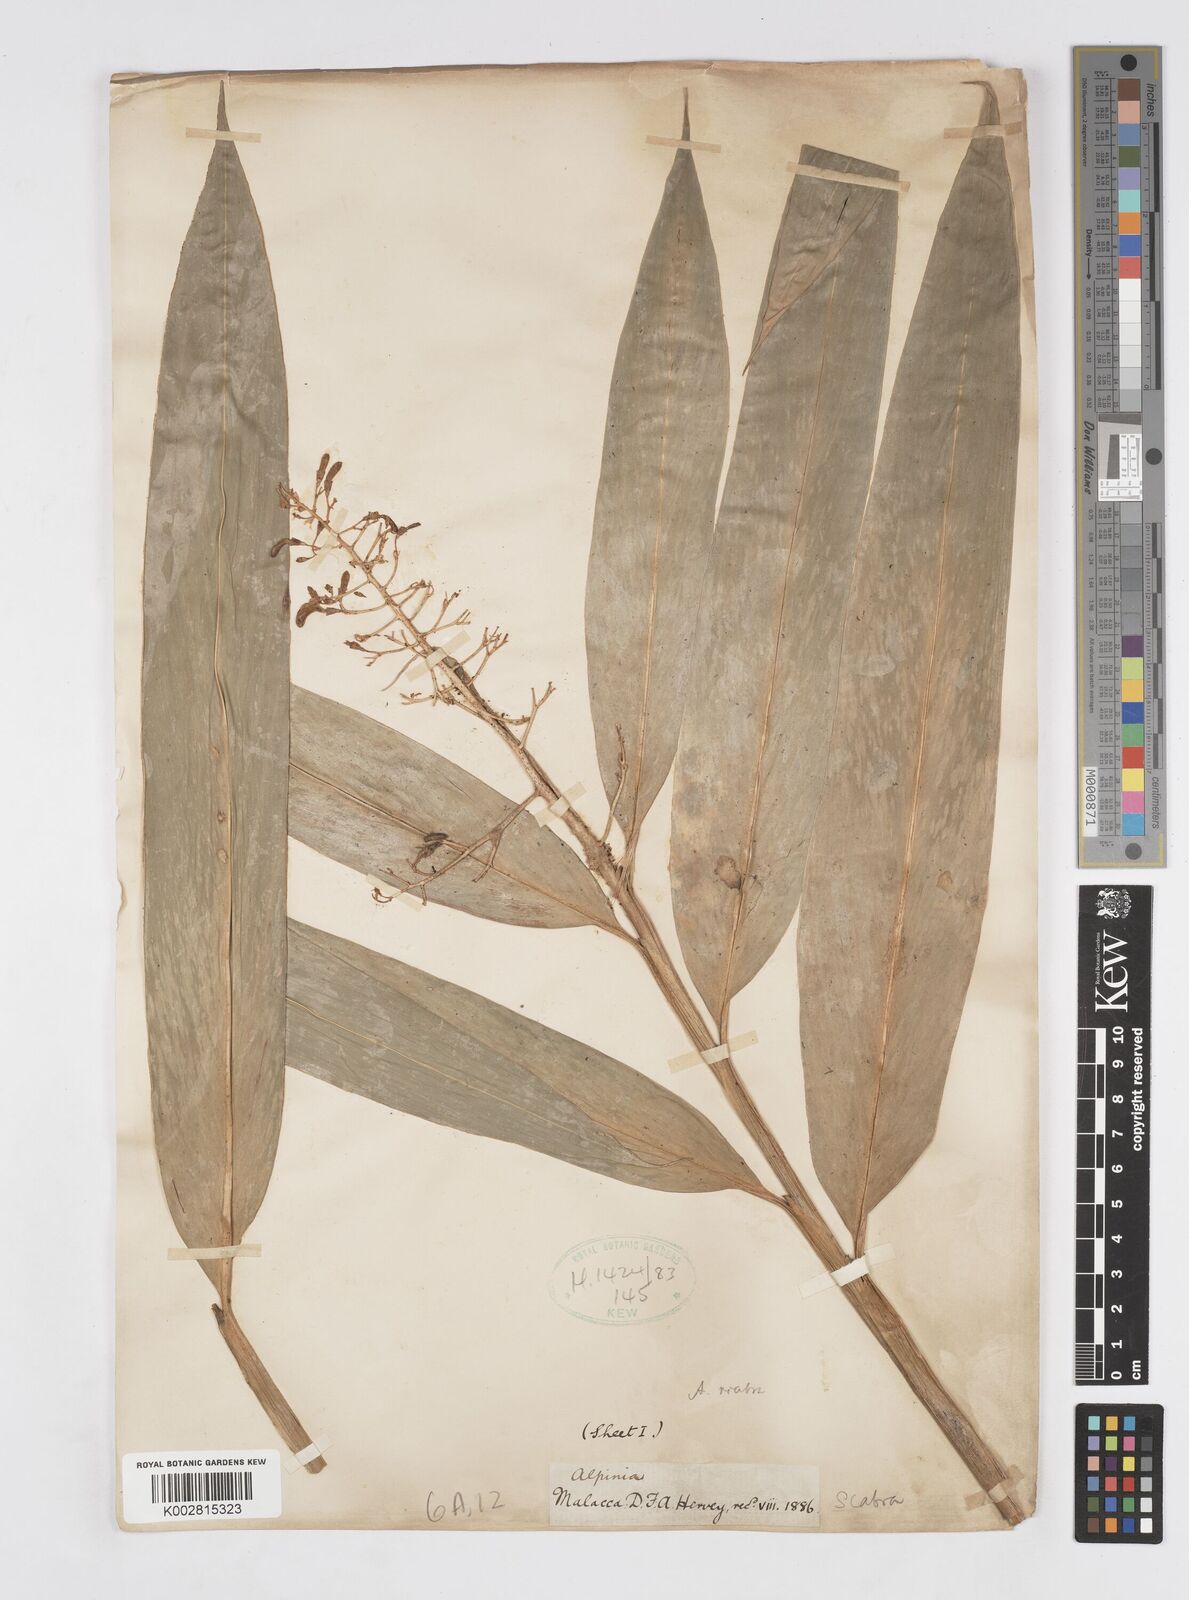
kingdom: Plantae
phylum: Tracheophyta
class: Liliopsida
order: Zingiberales
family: Zingiberaceae
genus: Alpinia
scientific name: Alpinia scabra
